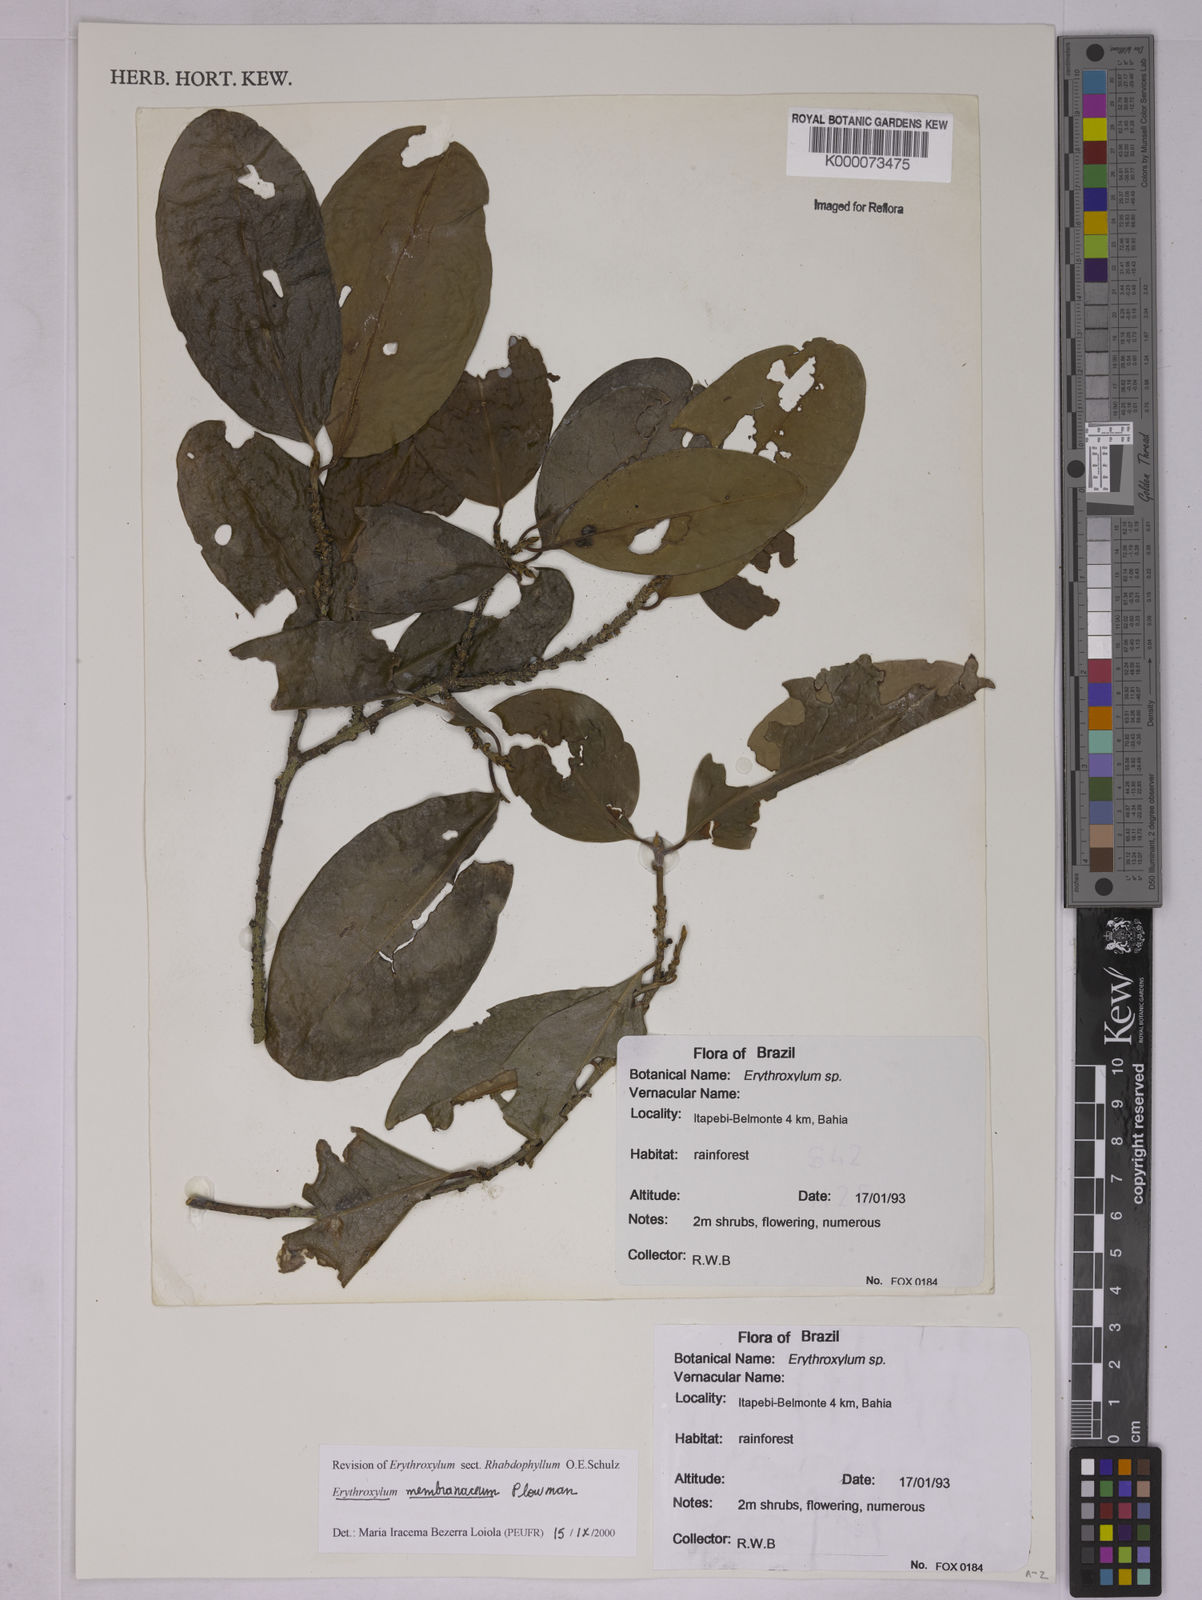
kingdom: Plantae
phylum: Tracheophyta
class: Magnoliopsida
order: Malpighiales
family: Erythroxylaceae
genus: Erythroxylum
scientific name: Erythroxylum membranaceum
